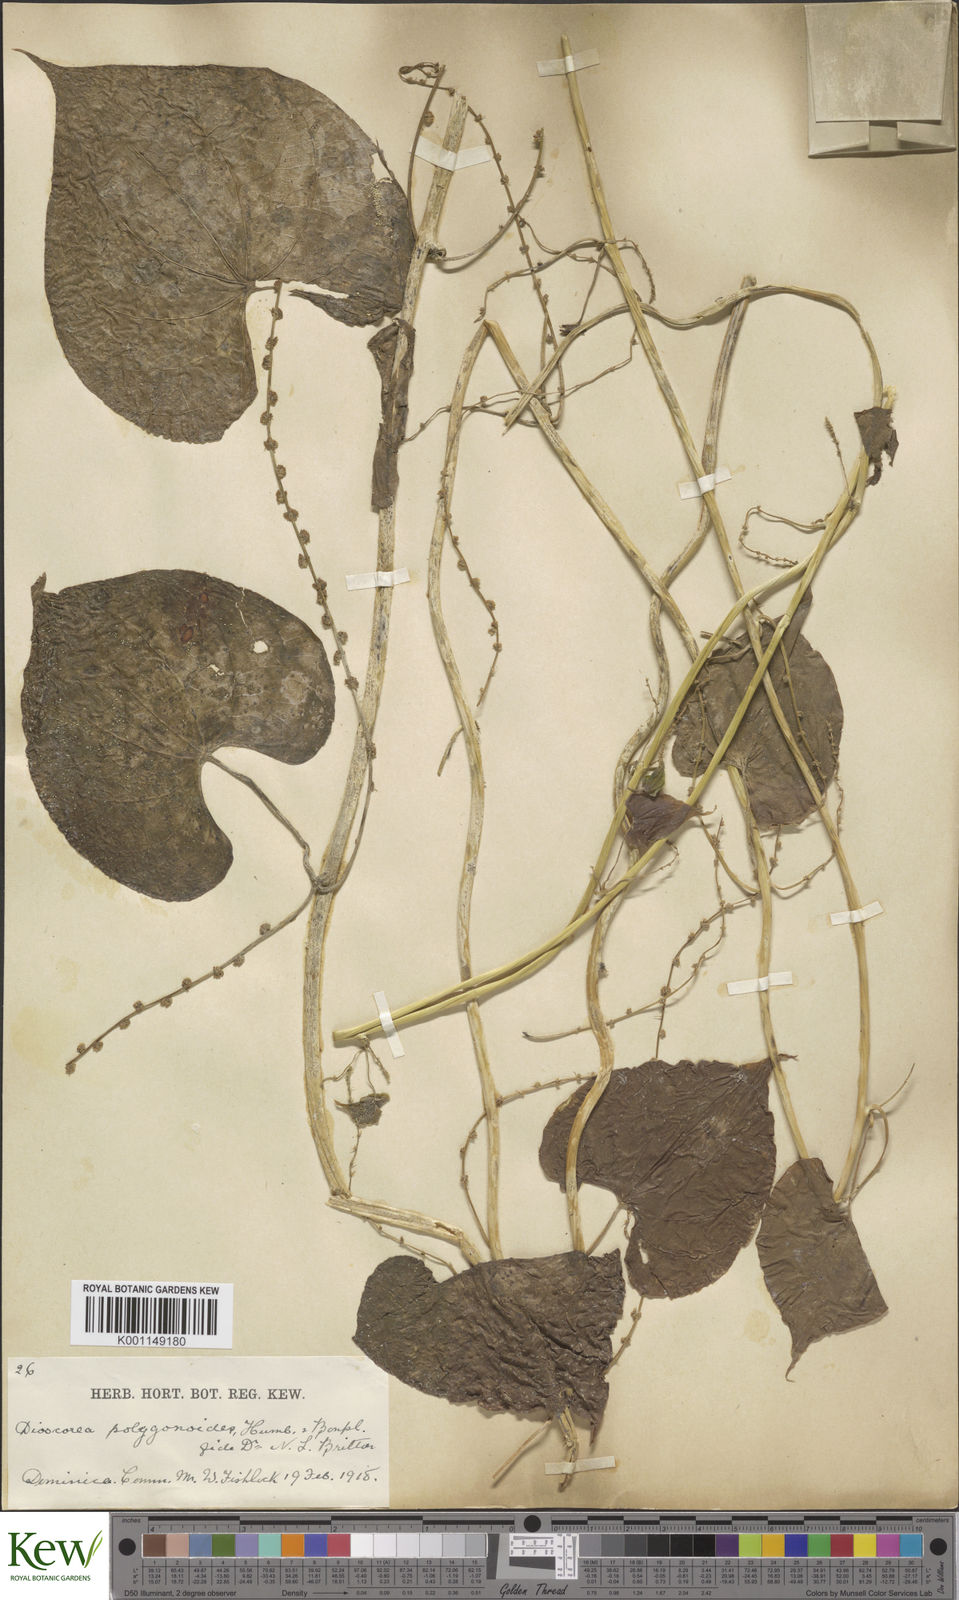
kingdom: Plantae
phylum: Tracheophyta
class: Liliopsida
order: Dioscoreales
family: Dioscoreaceae
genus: Dioscorea
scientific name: Dioscorea polygonoides
